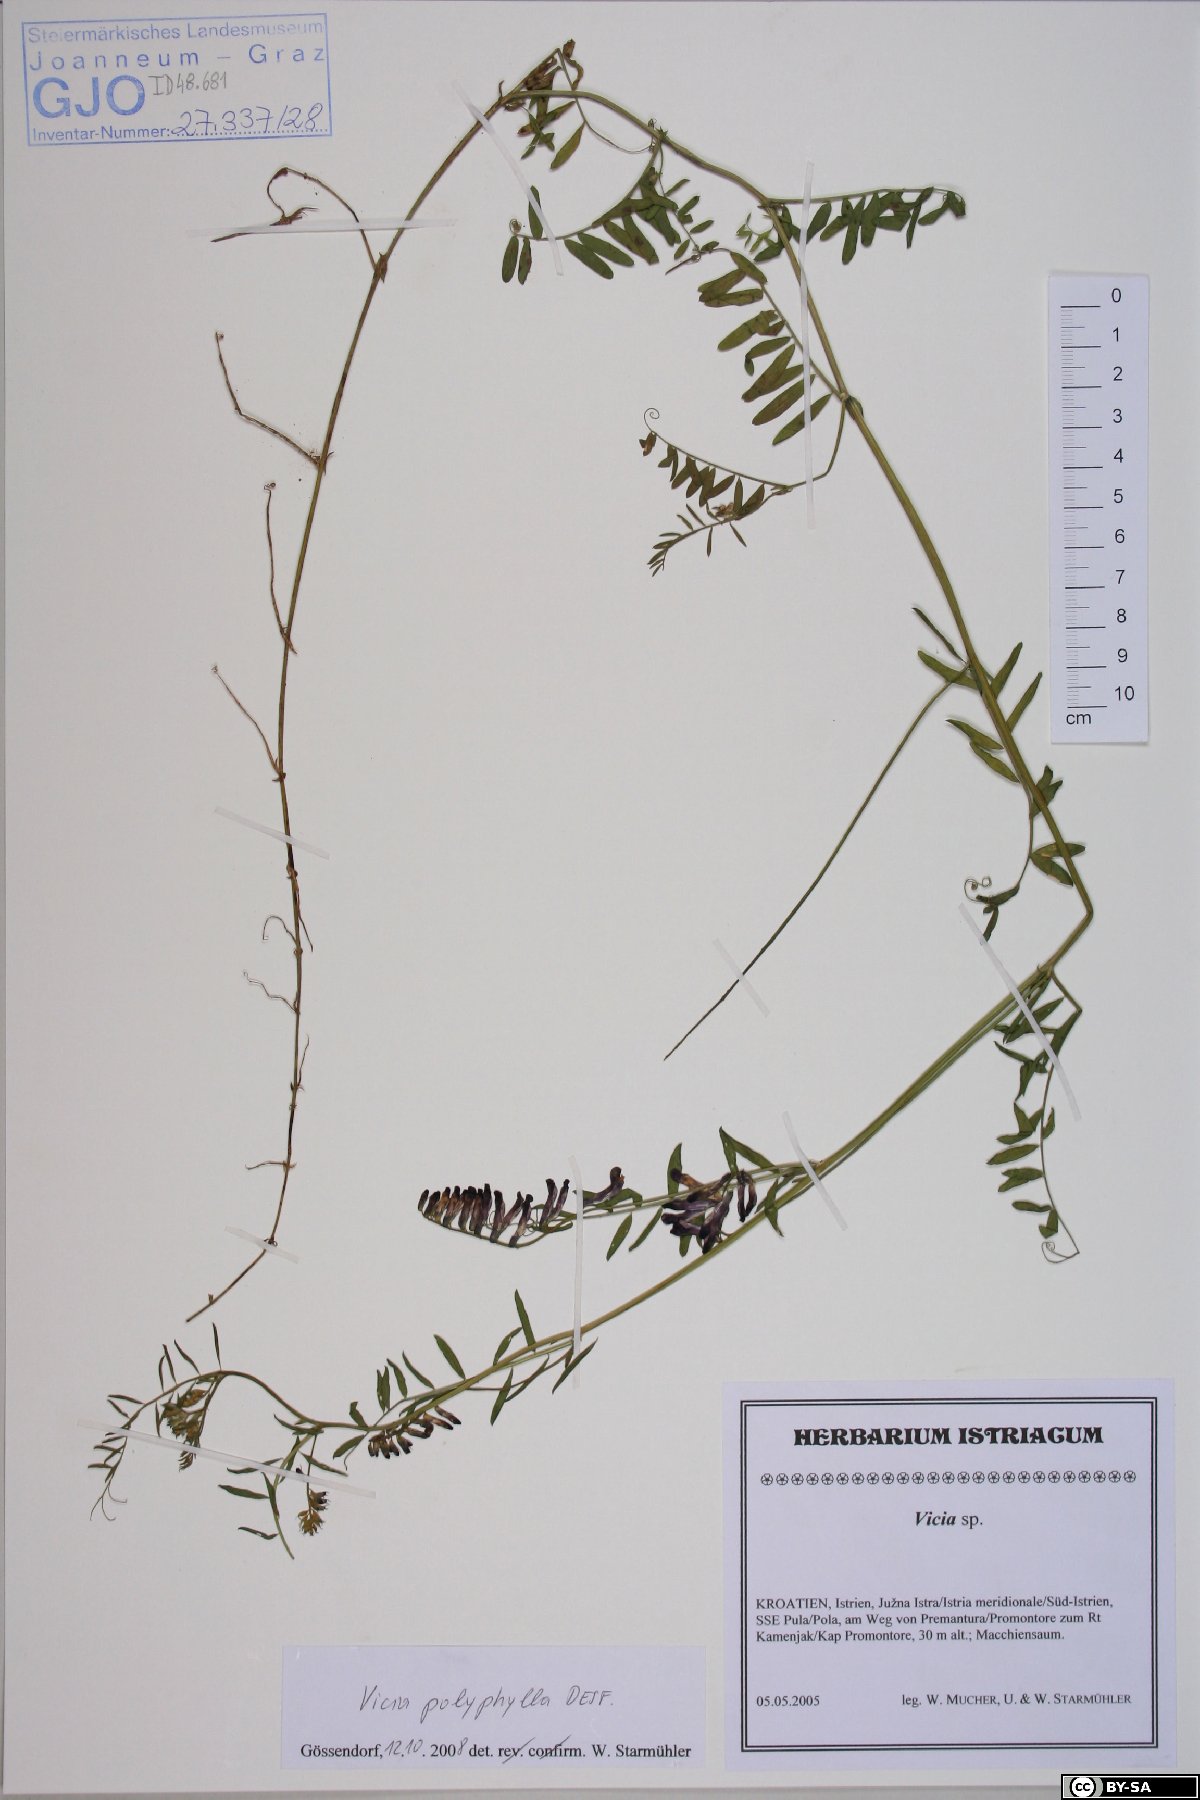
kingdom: Plantae
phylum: Tracheophyta
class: Magnoliopsida
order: Fabales
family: Fabaceae
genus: Vicia
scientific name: Vicia tenuifolia
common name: Fine-leaved vetch
